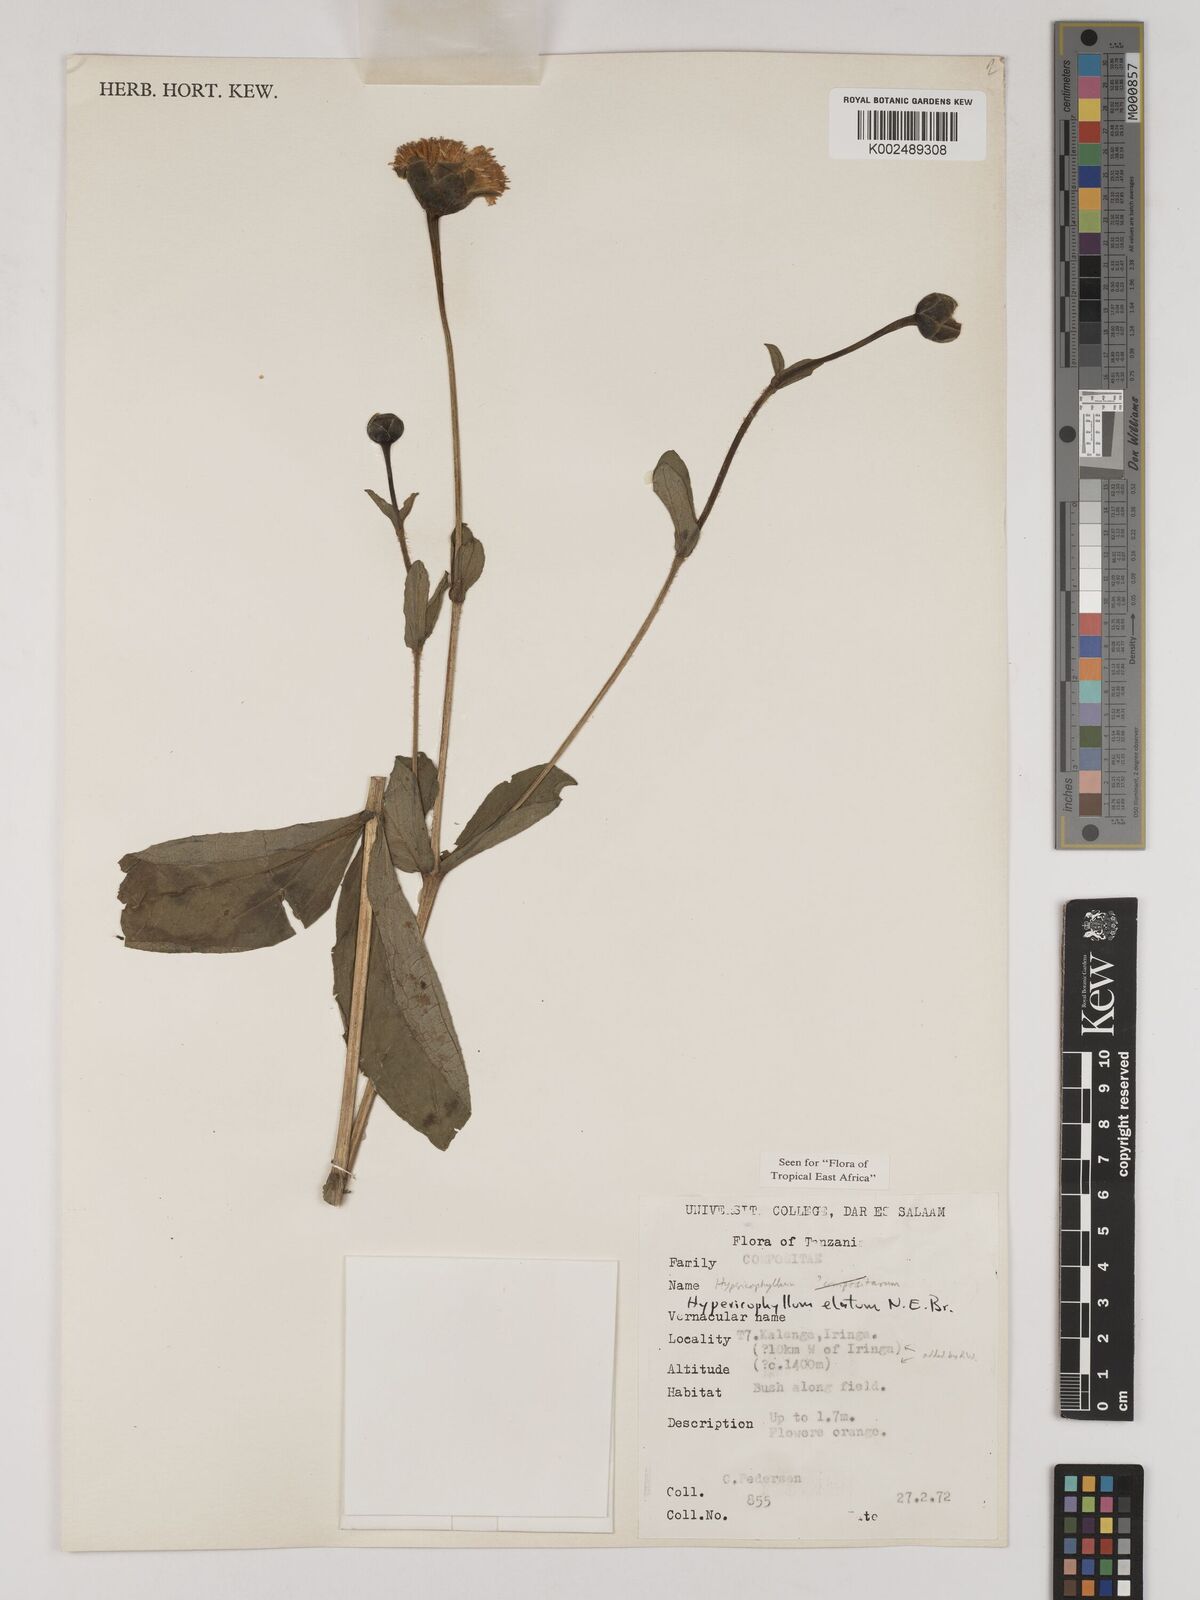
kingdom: Plantae
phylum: Tracheophyta
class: Magnoliopsida
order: Asterales
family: Asteraceae
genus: Hypericophyllum
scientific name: Hypericophyllum elatum
